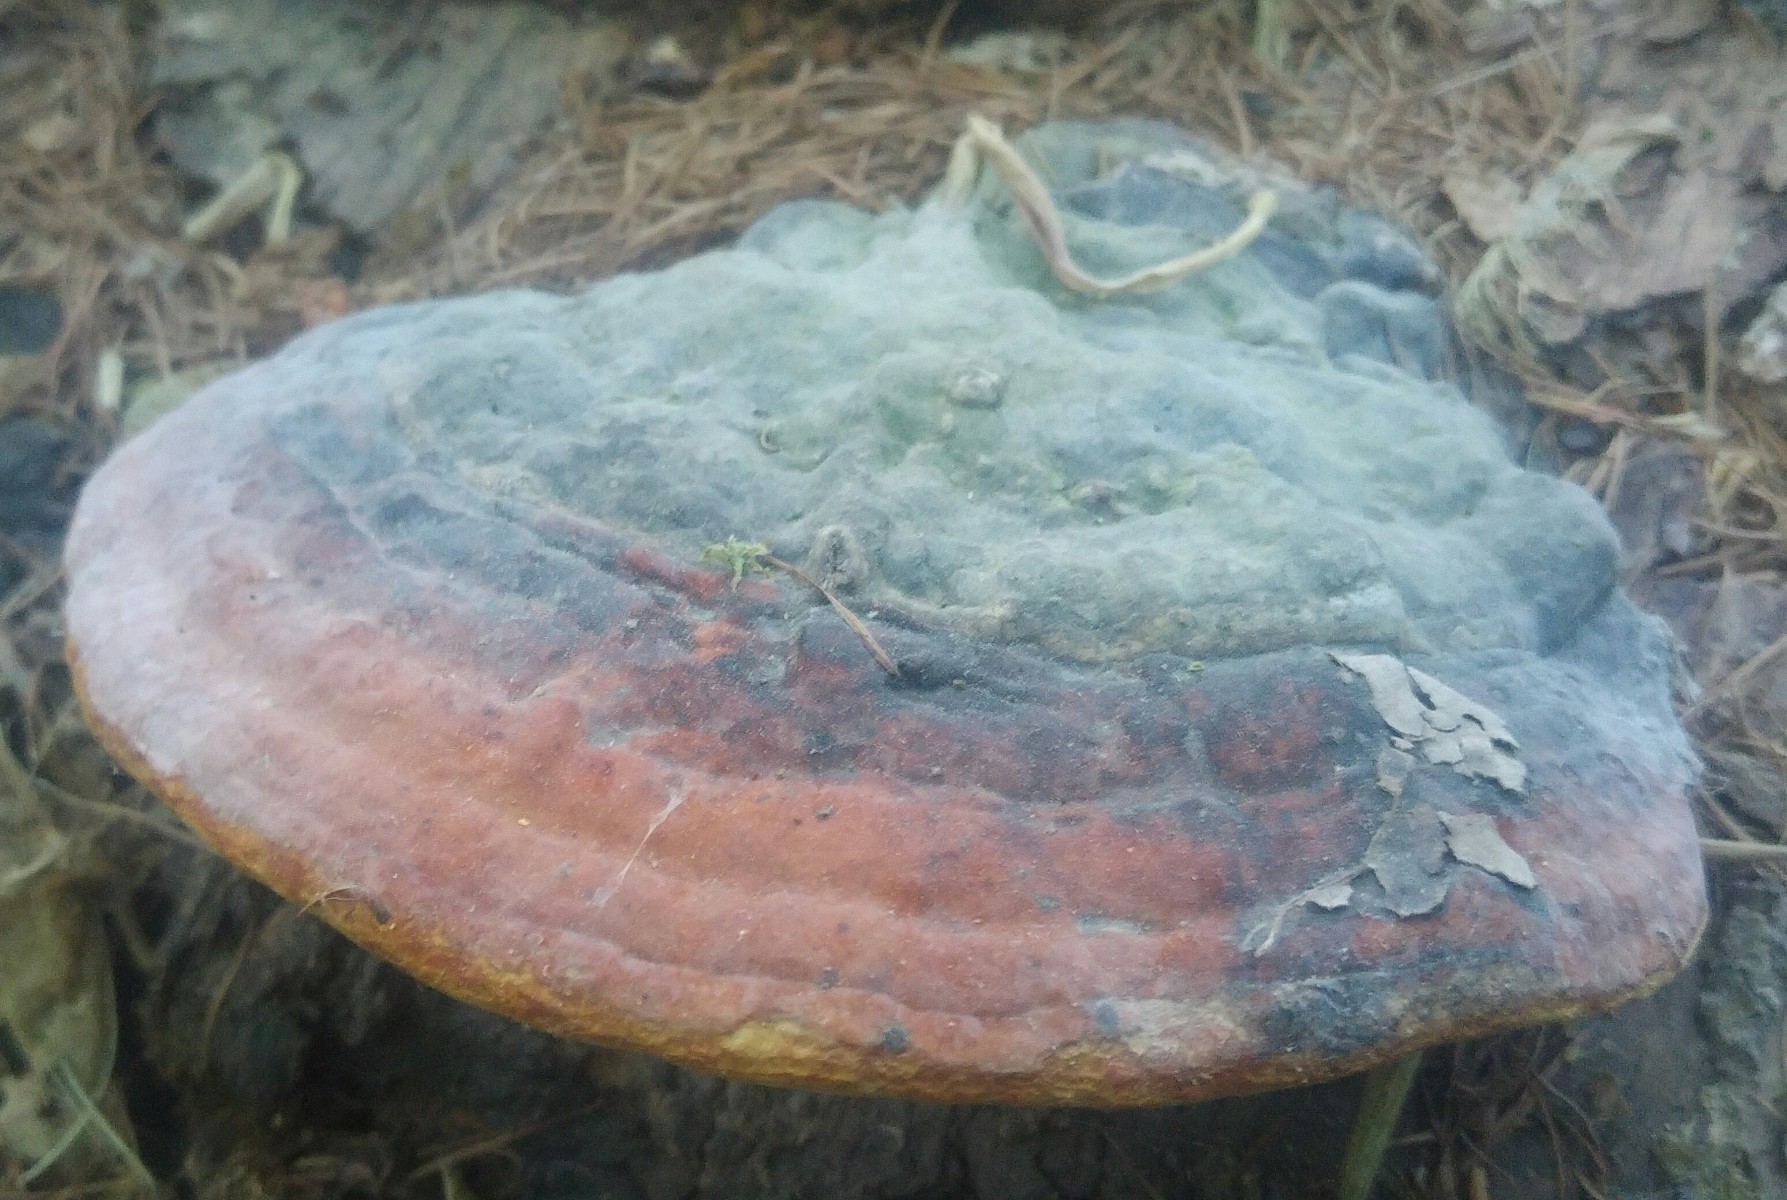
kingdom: Fungi
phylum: Basidiomycota
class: Agaricomycetes
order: Polyporales
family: Fomitopsidaceae
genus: Fomitopsis
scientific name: Fomitopsis pinicola
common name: randbæltet hovporesvamp
